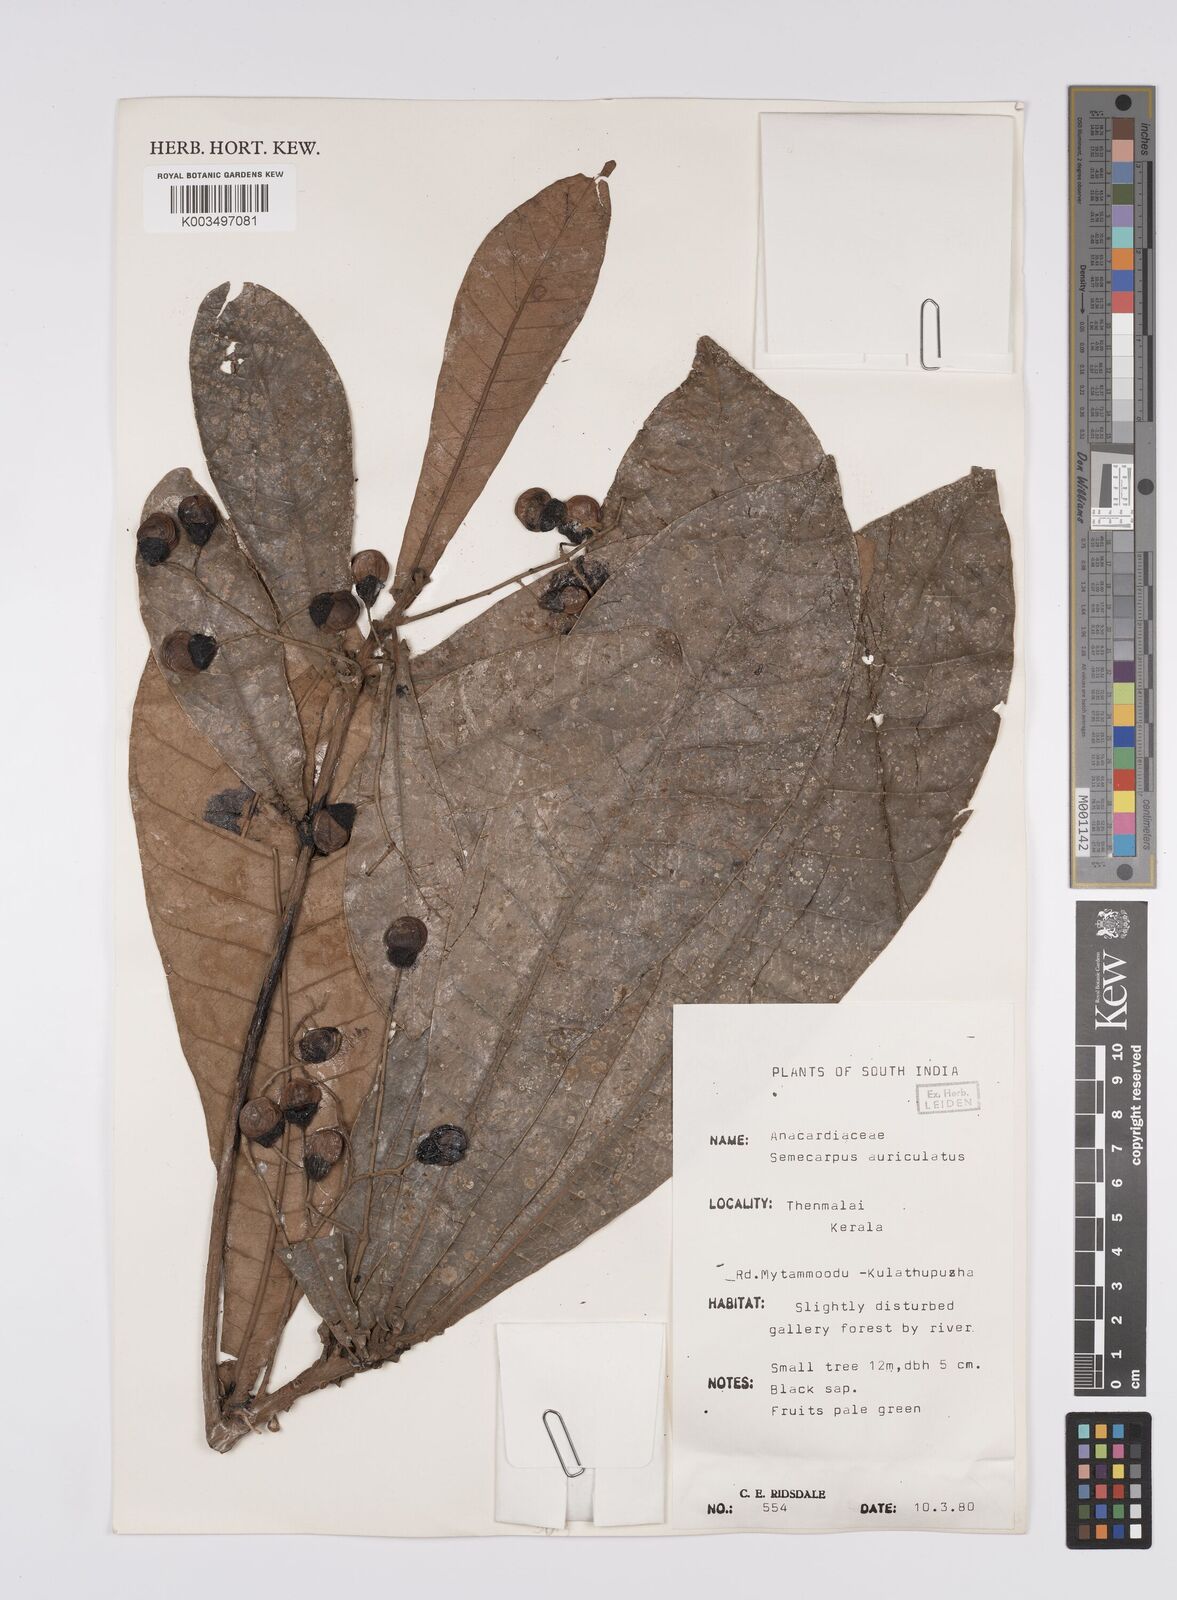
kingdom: Plantae
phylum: Tracheophyta
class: Magnoliopsida
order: Sapindales
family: Anacardiaceae
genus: Semecarpus
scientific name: Semecarpus auriculatus
